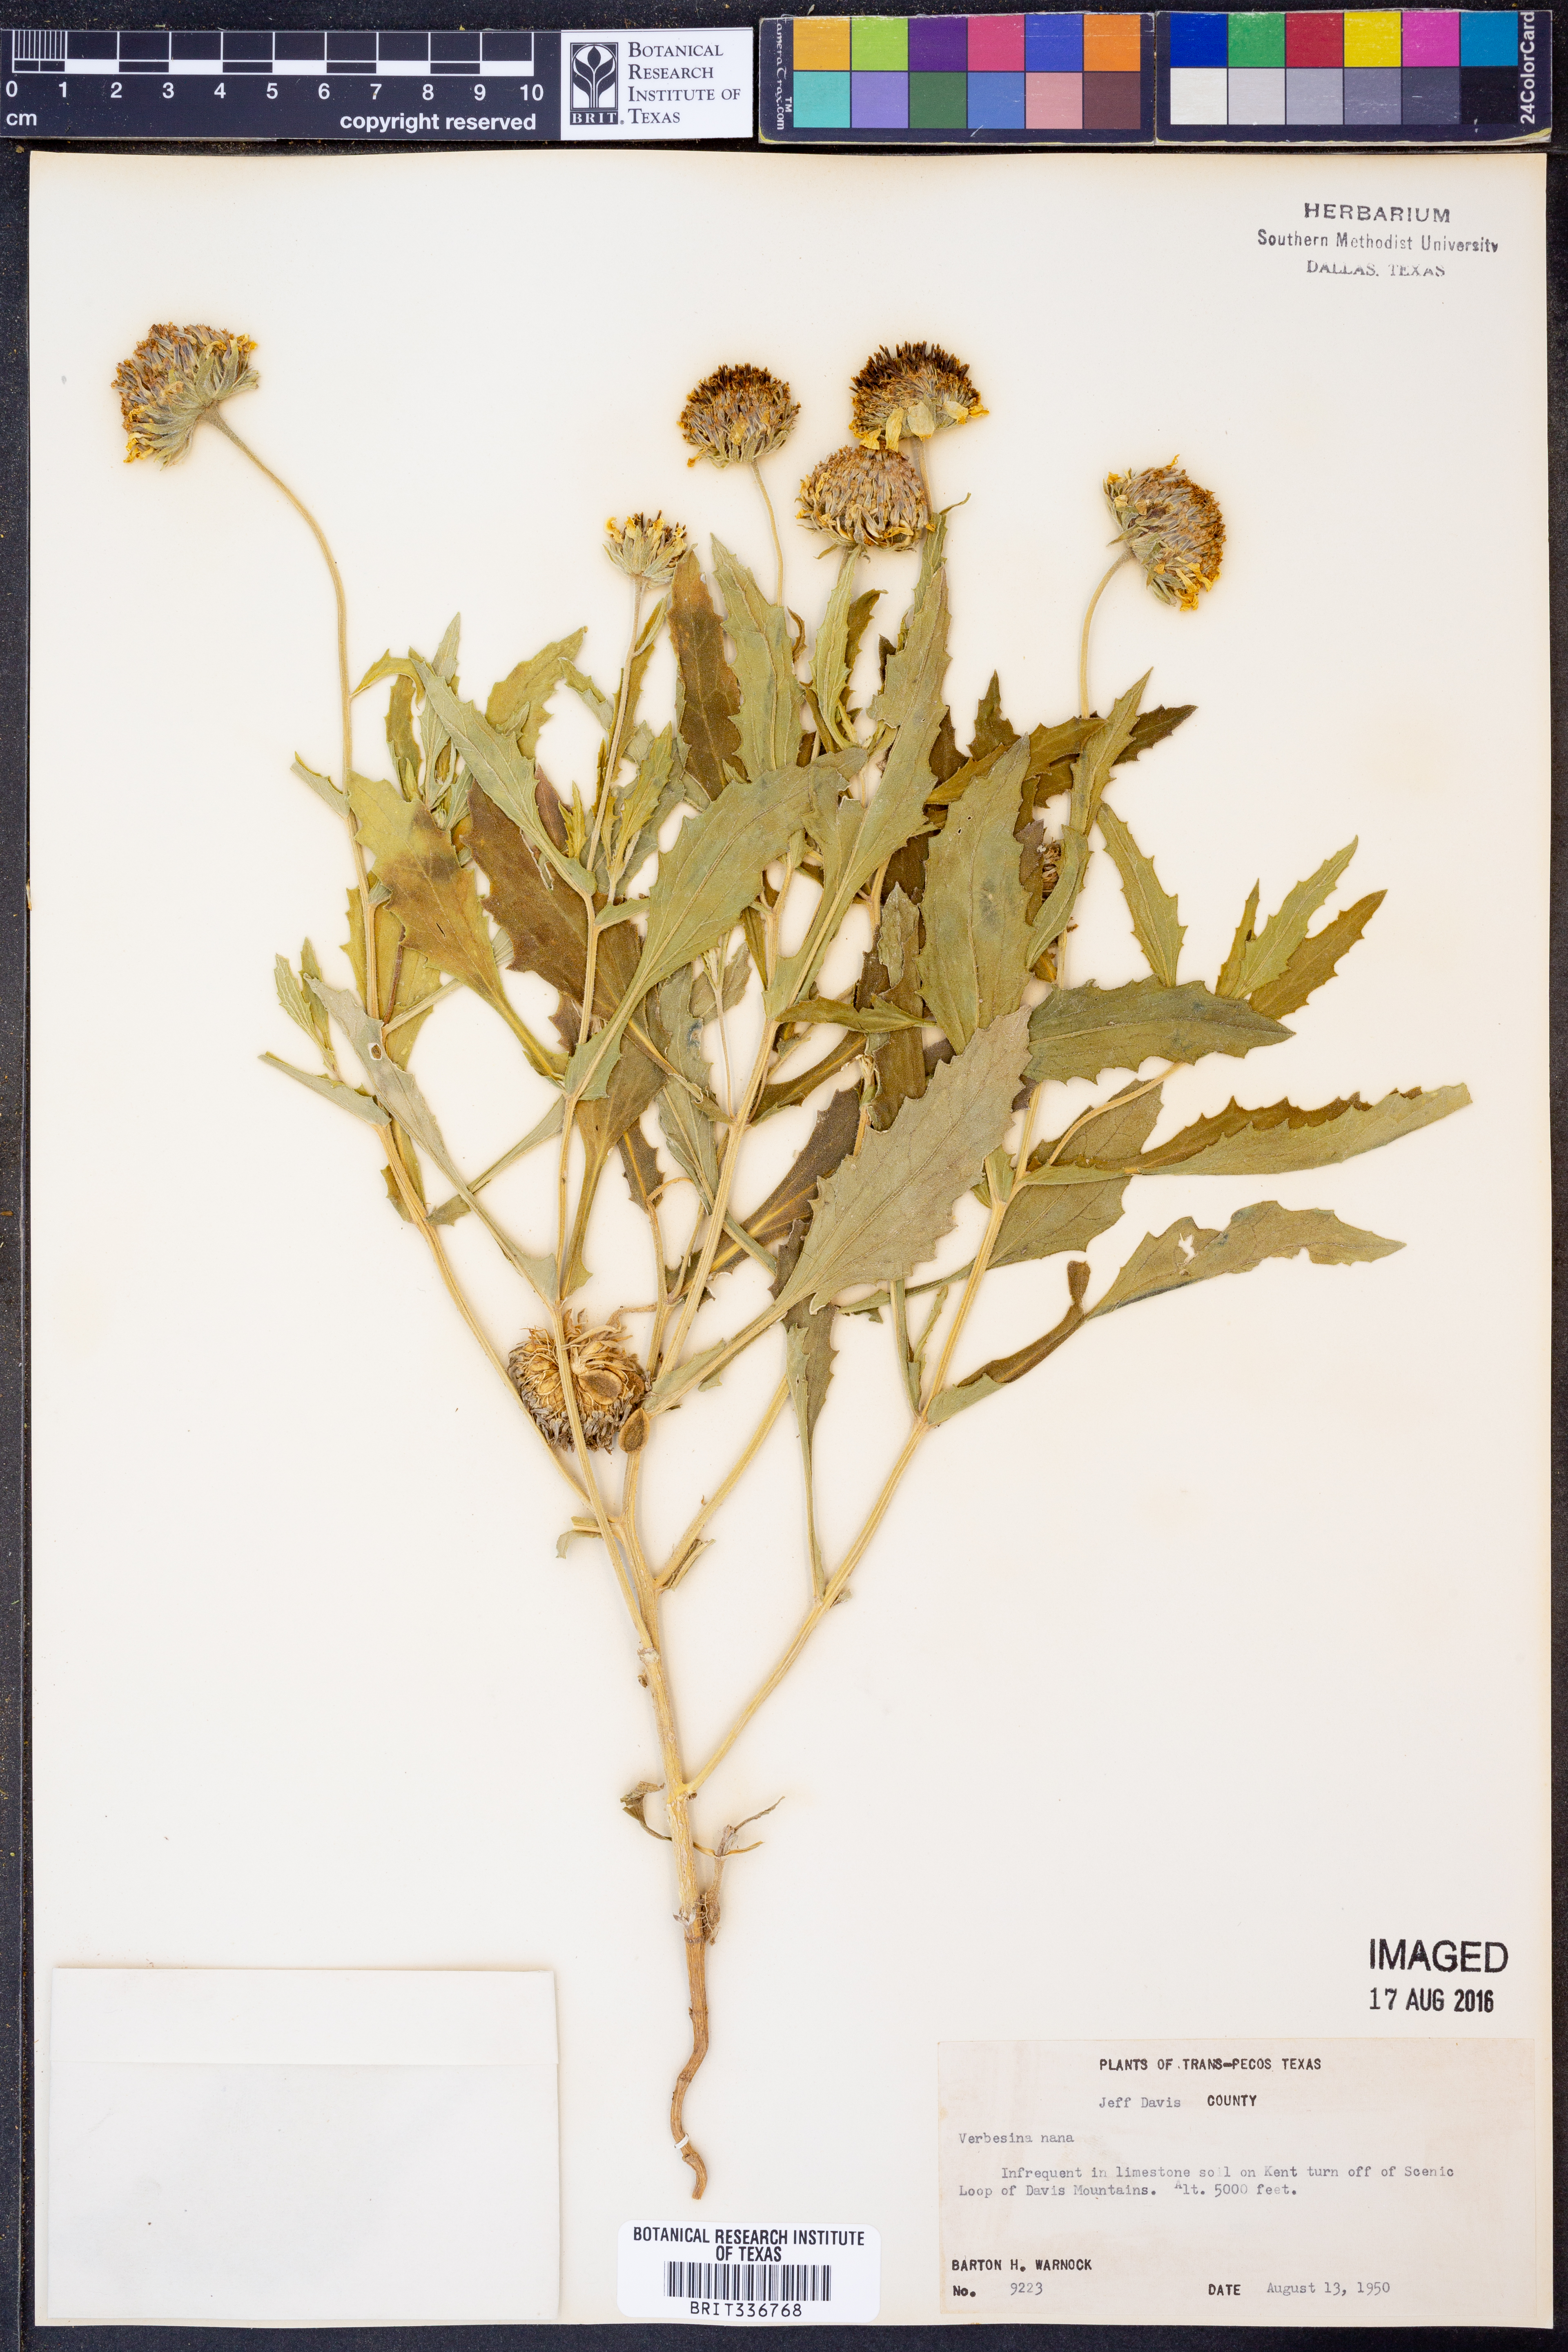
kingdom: Plantae
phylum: Tracheophyta
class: Magnoliopsida
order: Asterales
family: Asteraceae
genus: Verbesina
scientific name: Verbesina nana
